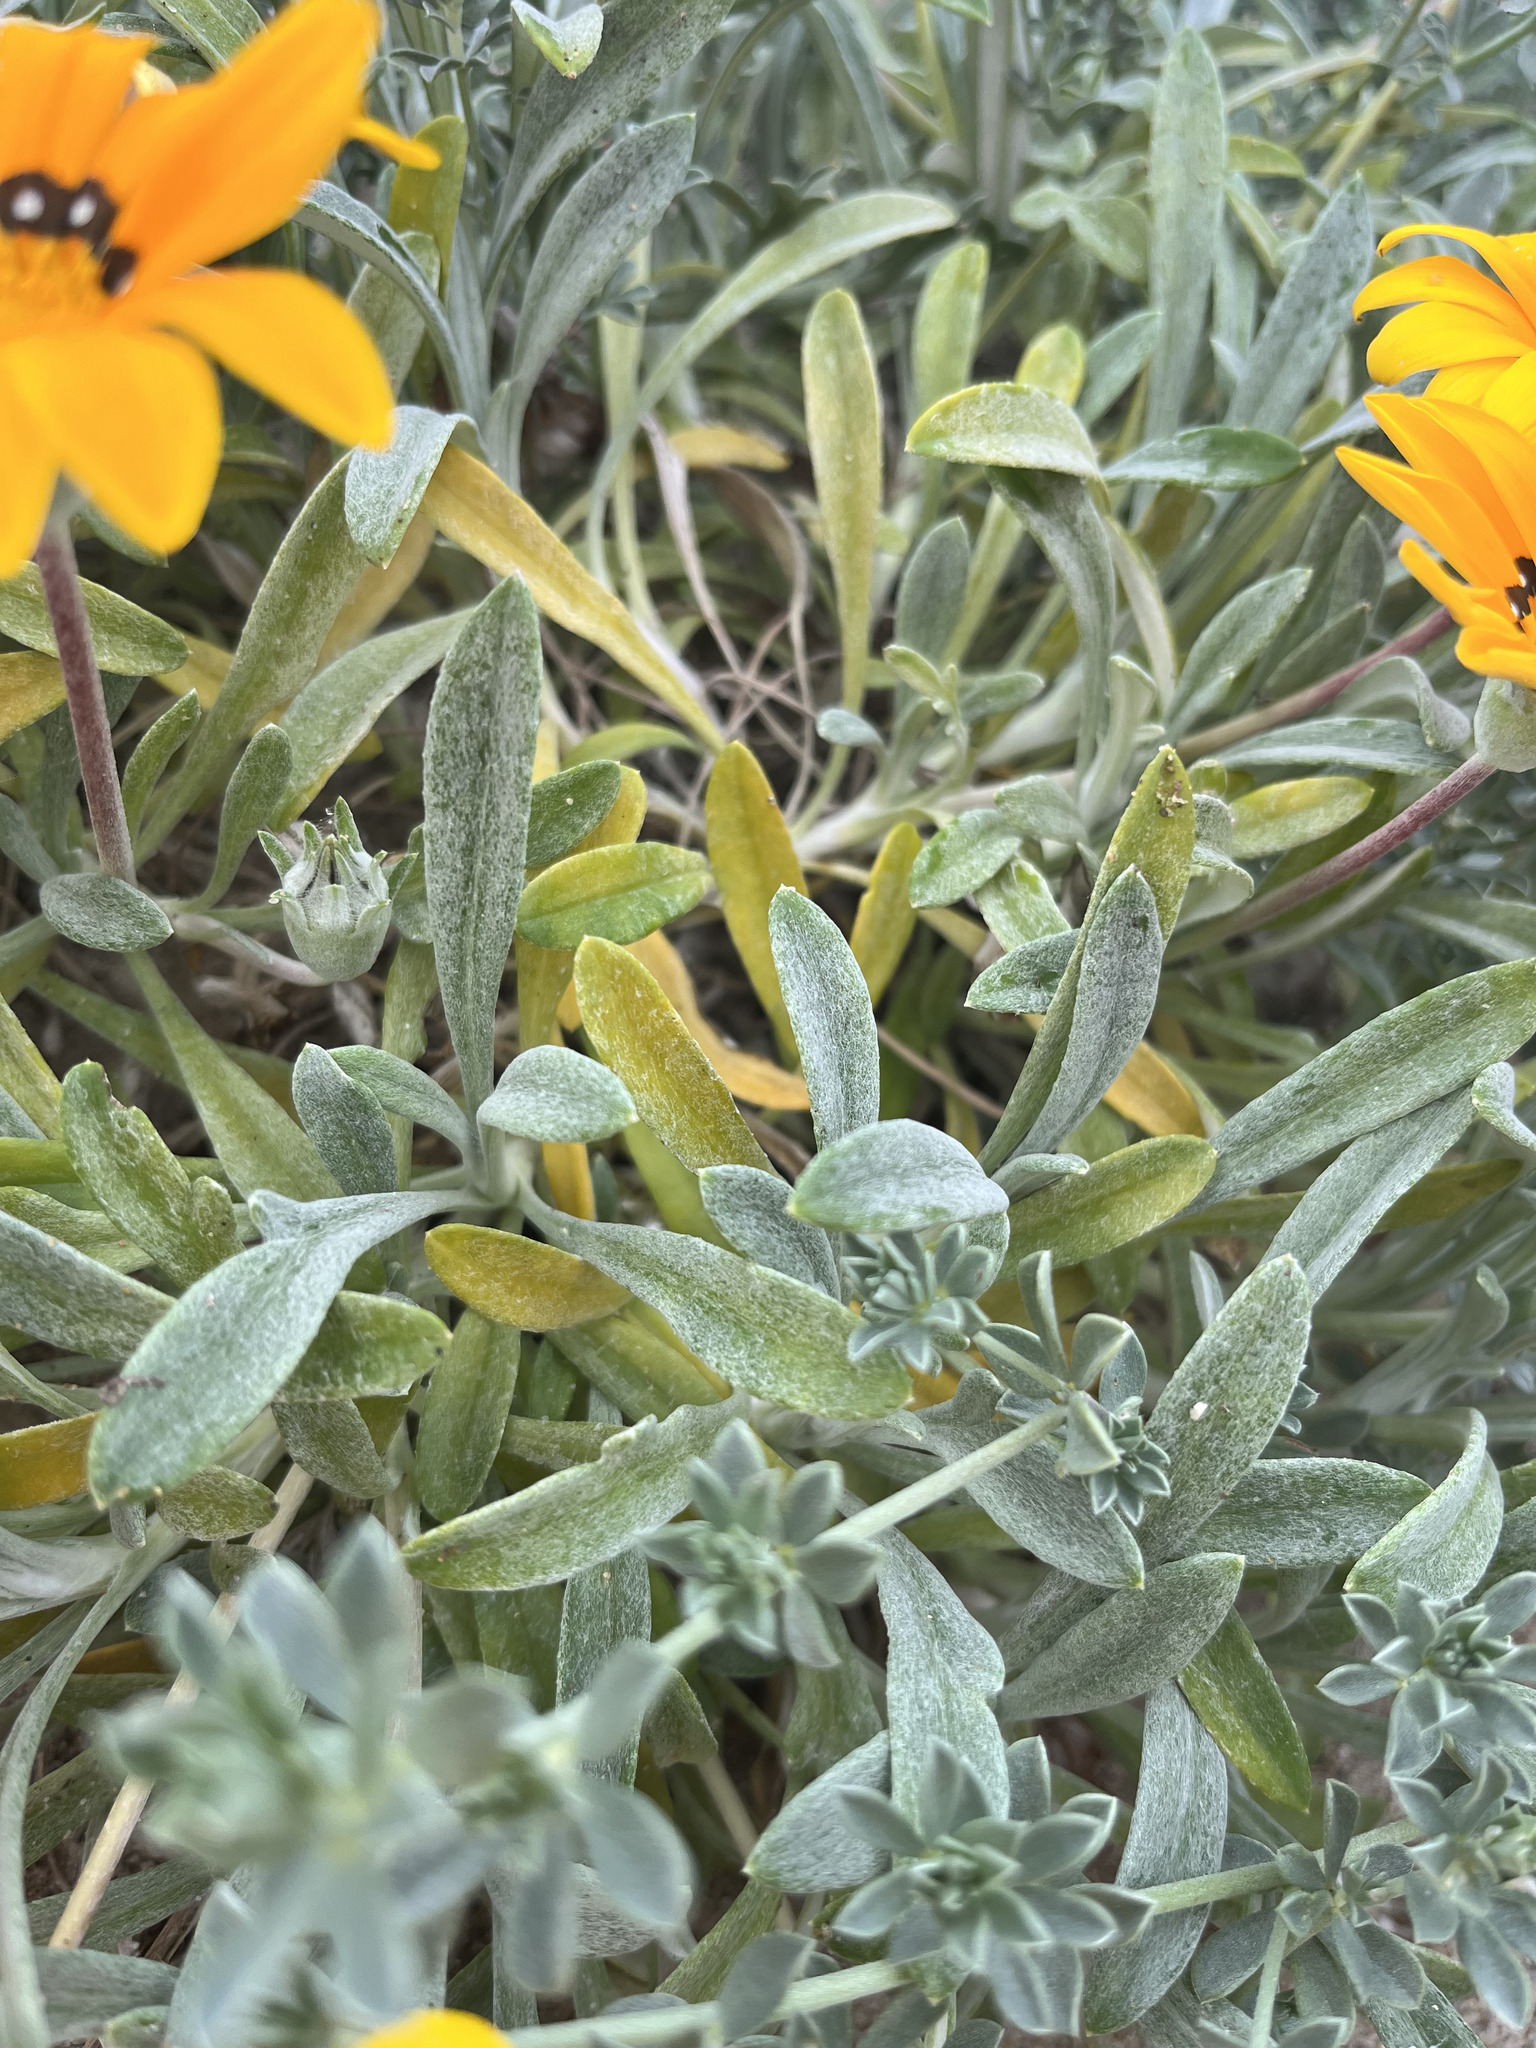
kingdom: Plantae
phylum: Tracheophyta
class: Magnoliopsida
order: Fabales
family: Fabaceae
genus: Lotus
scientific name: Lotus creticus
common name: Cretan bird's-foot trefoil
